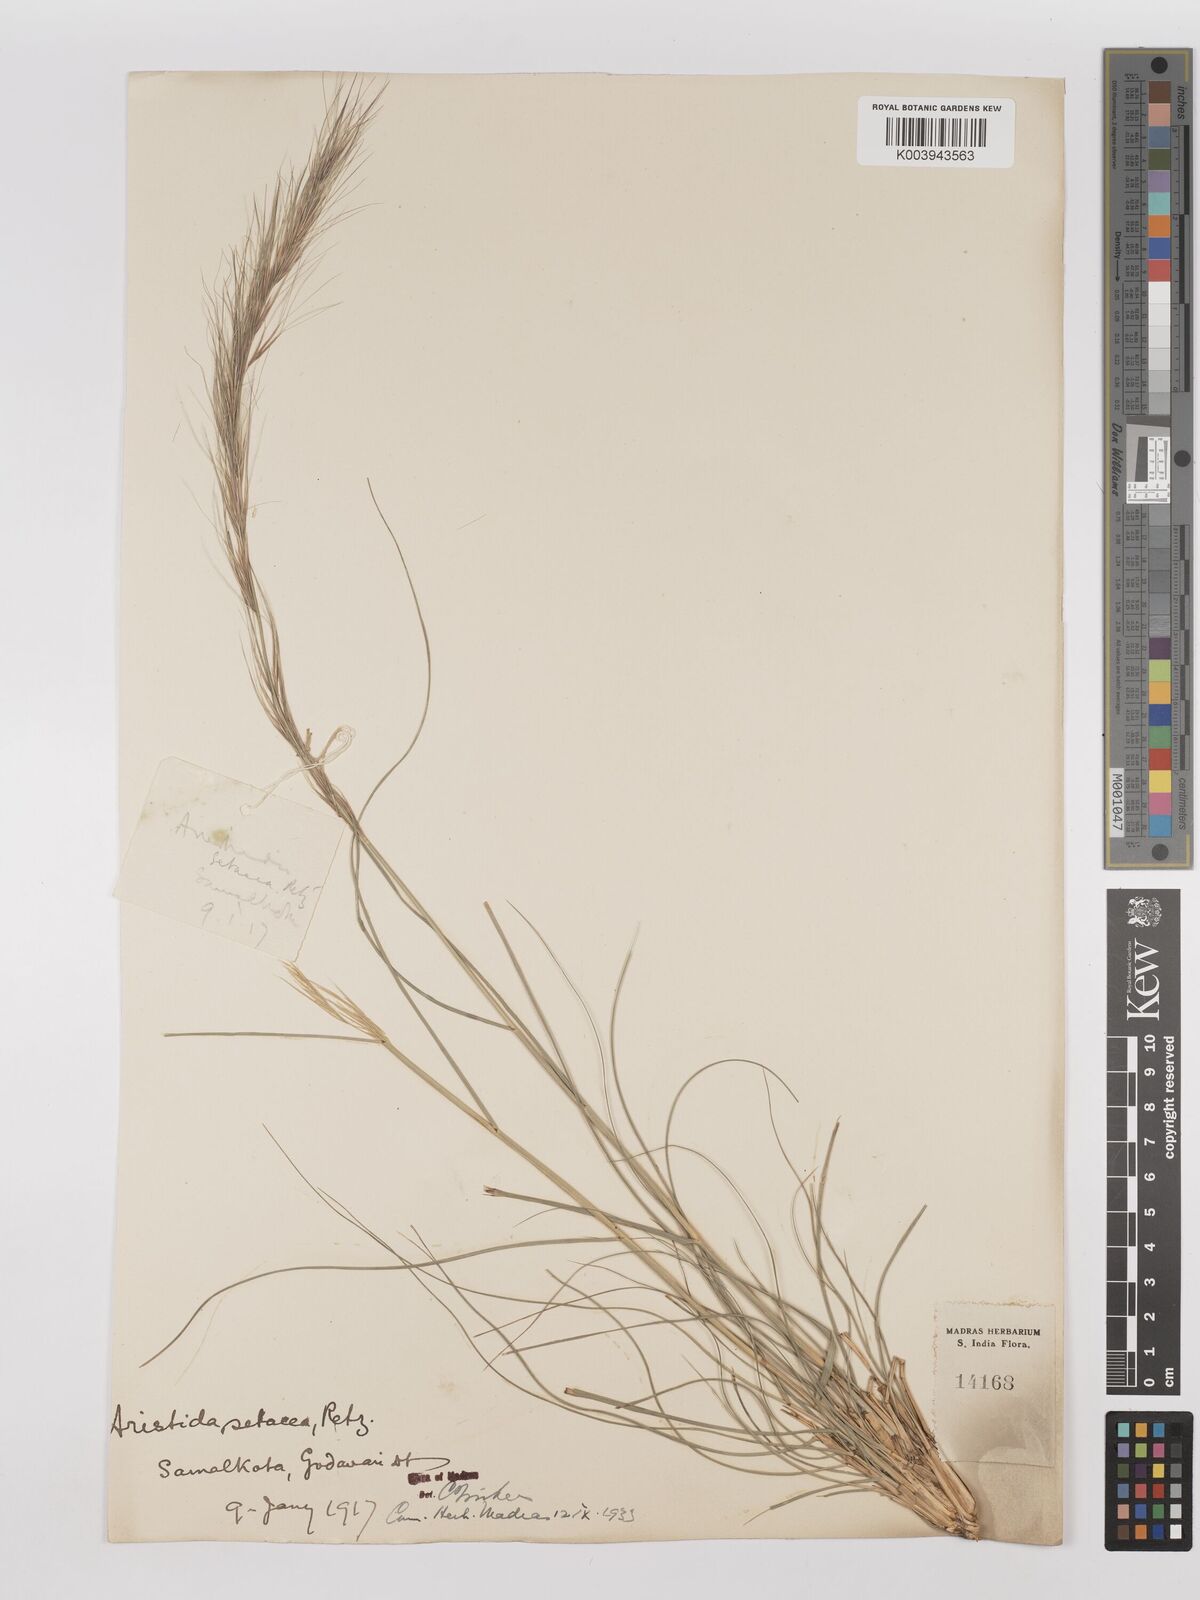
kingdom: Plantae
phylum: Tracheophyta
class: Liliopsida
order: Poales
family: Poaceae
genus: Aristida
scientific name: Aristida setacea
